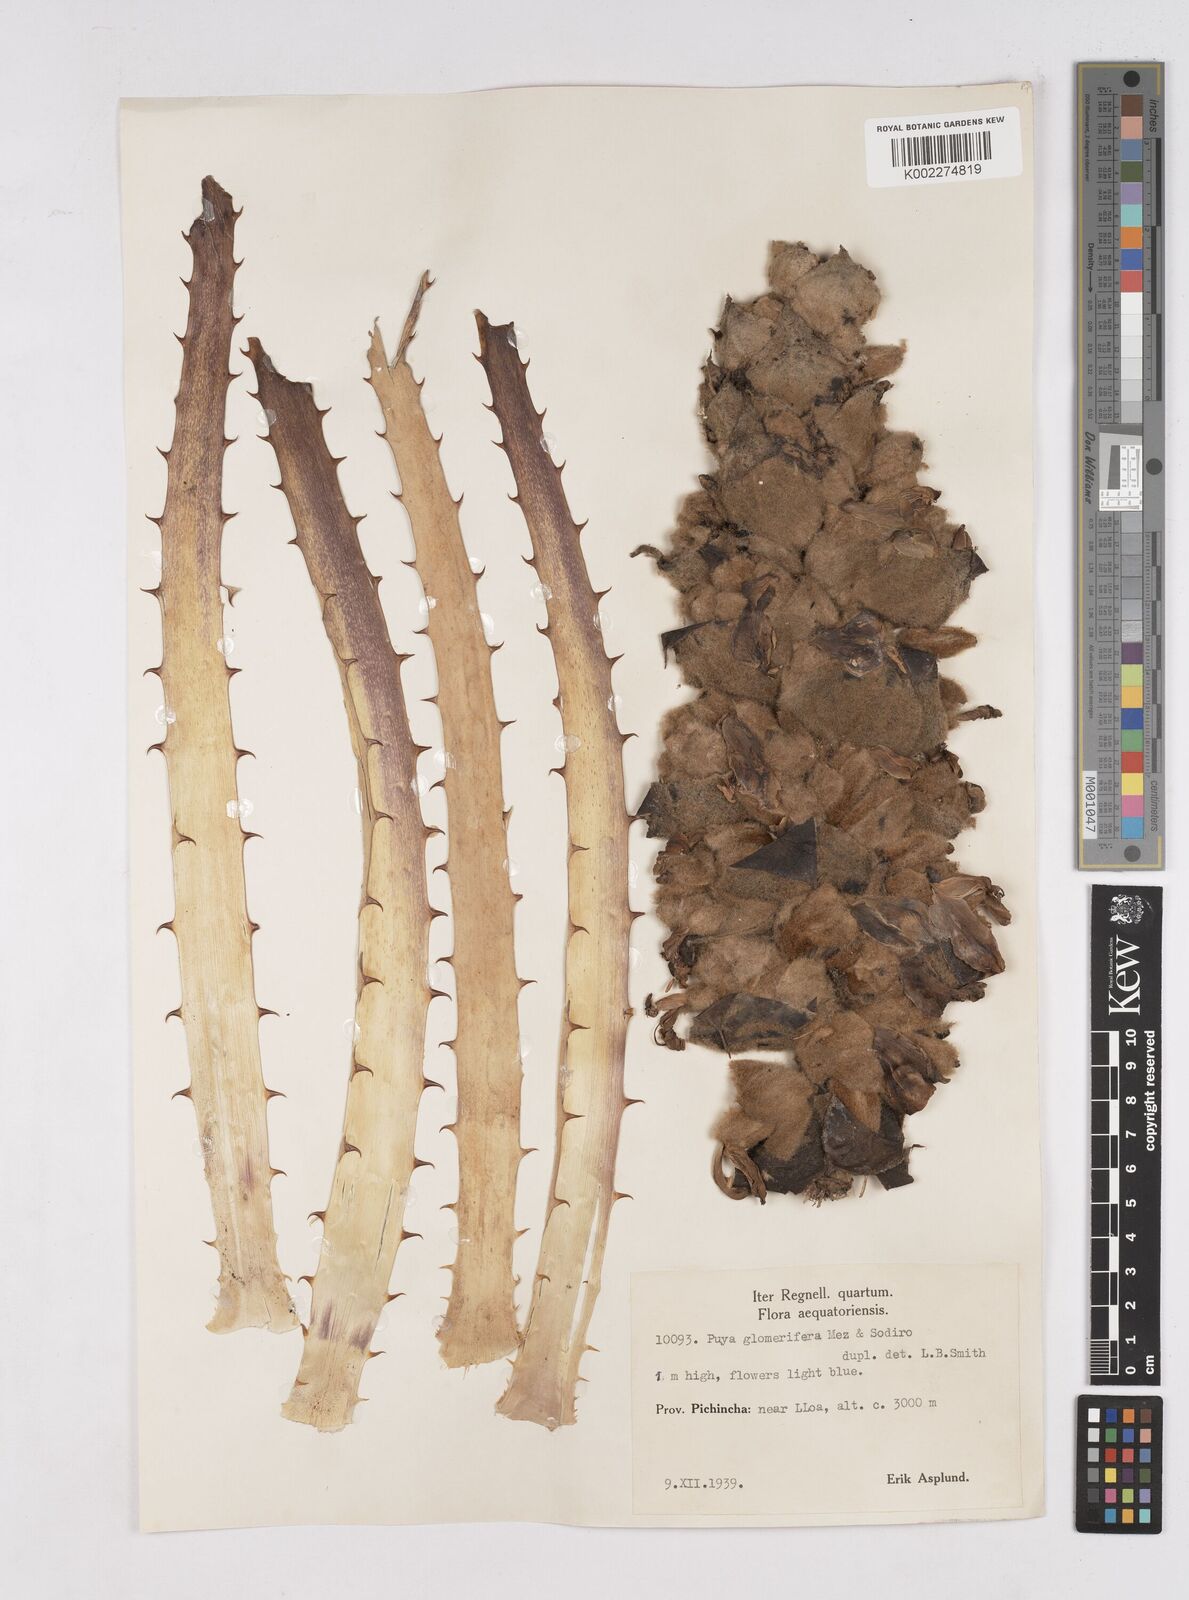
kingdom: Plantae
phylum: Tracheophyta
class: Liliopsida
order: Poales
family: Bromeliaceae
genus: Puya
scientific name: Puya glomerifera
